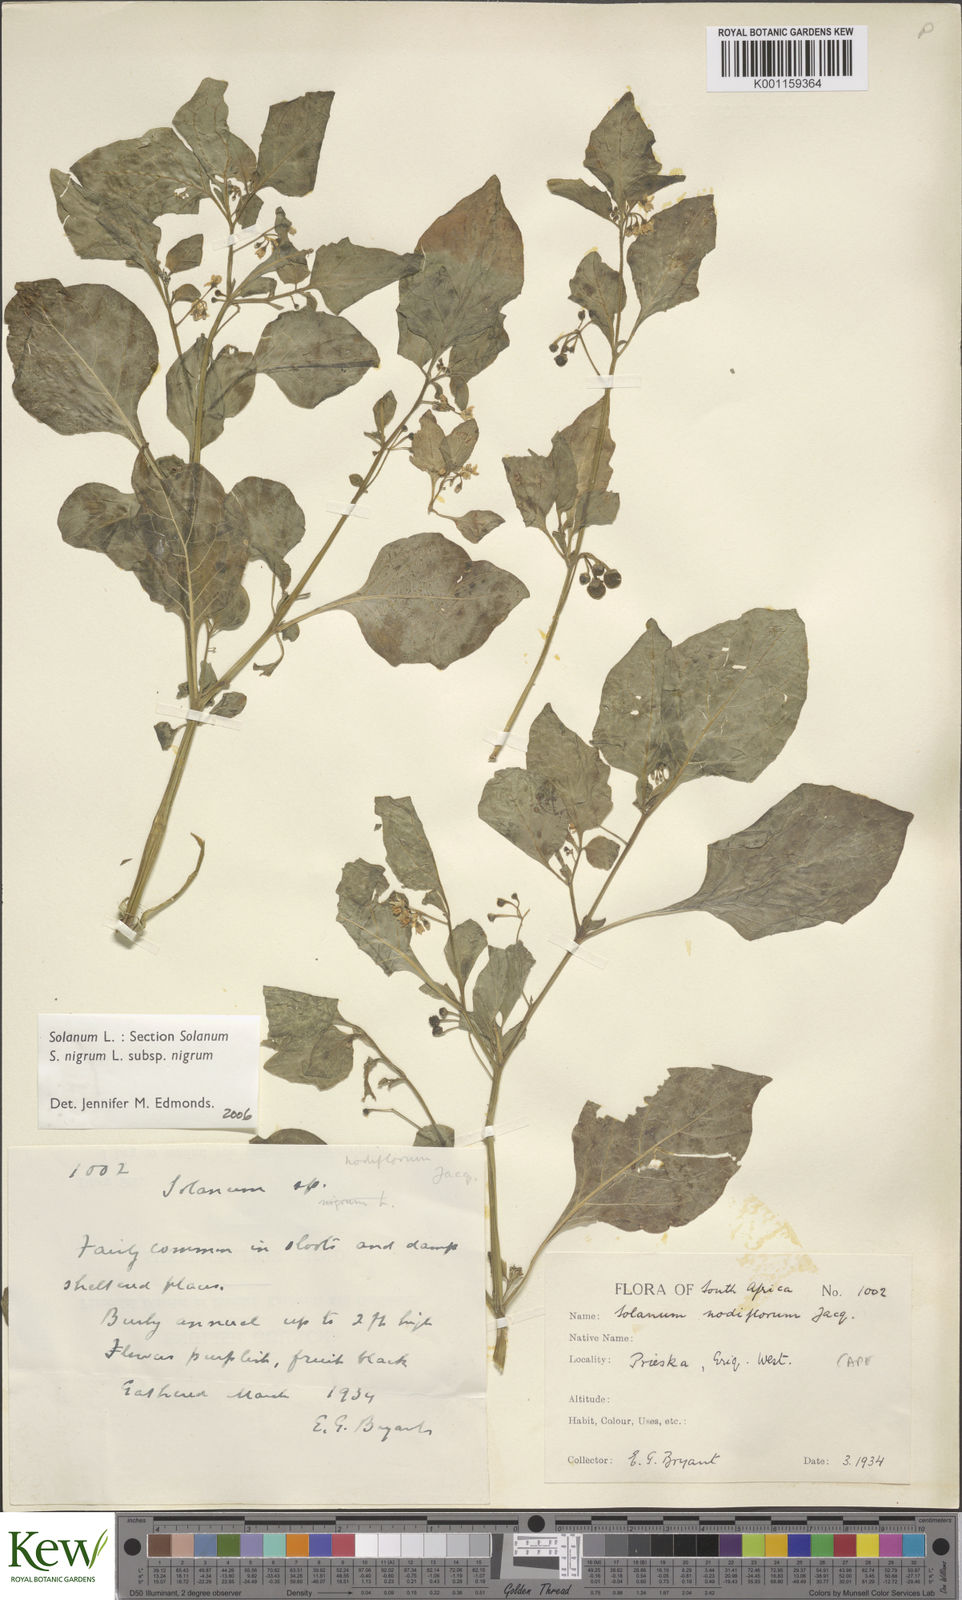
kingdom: Plantae
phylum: Tracheophyta
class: Magnoliopsida
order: Solanales
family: Solanaceae
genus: Solanum
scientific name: Solanum scabrum
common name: Garden-huckleberry
